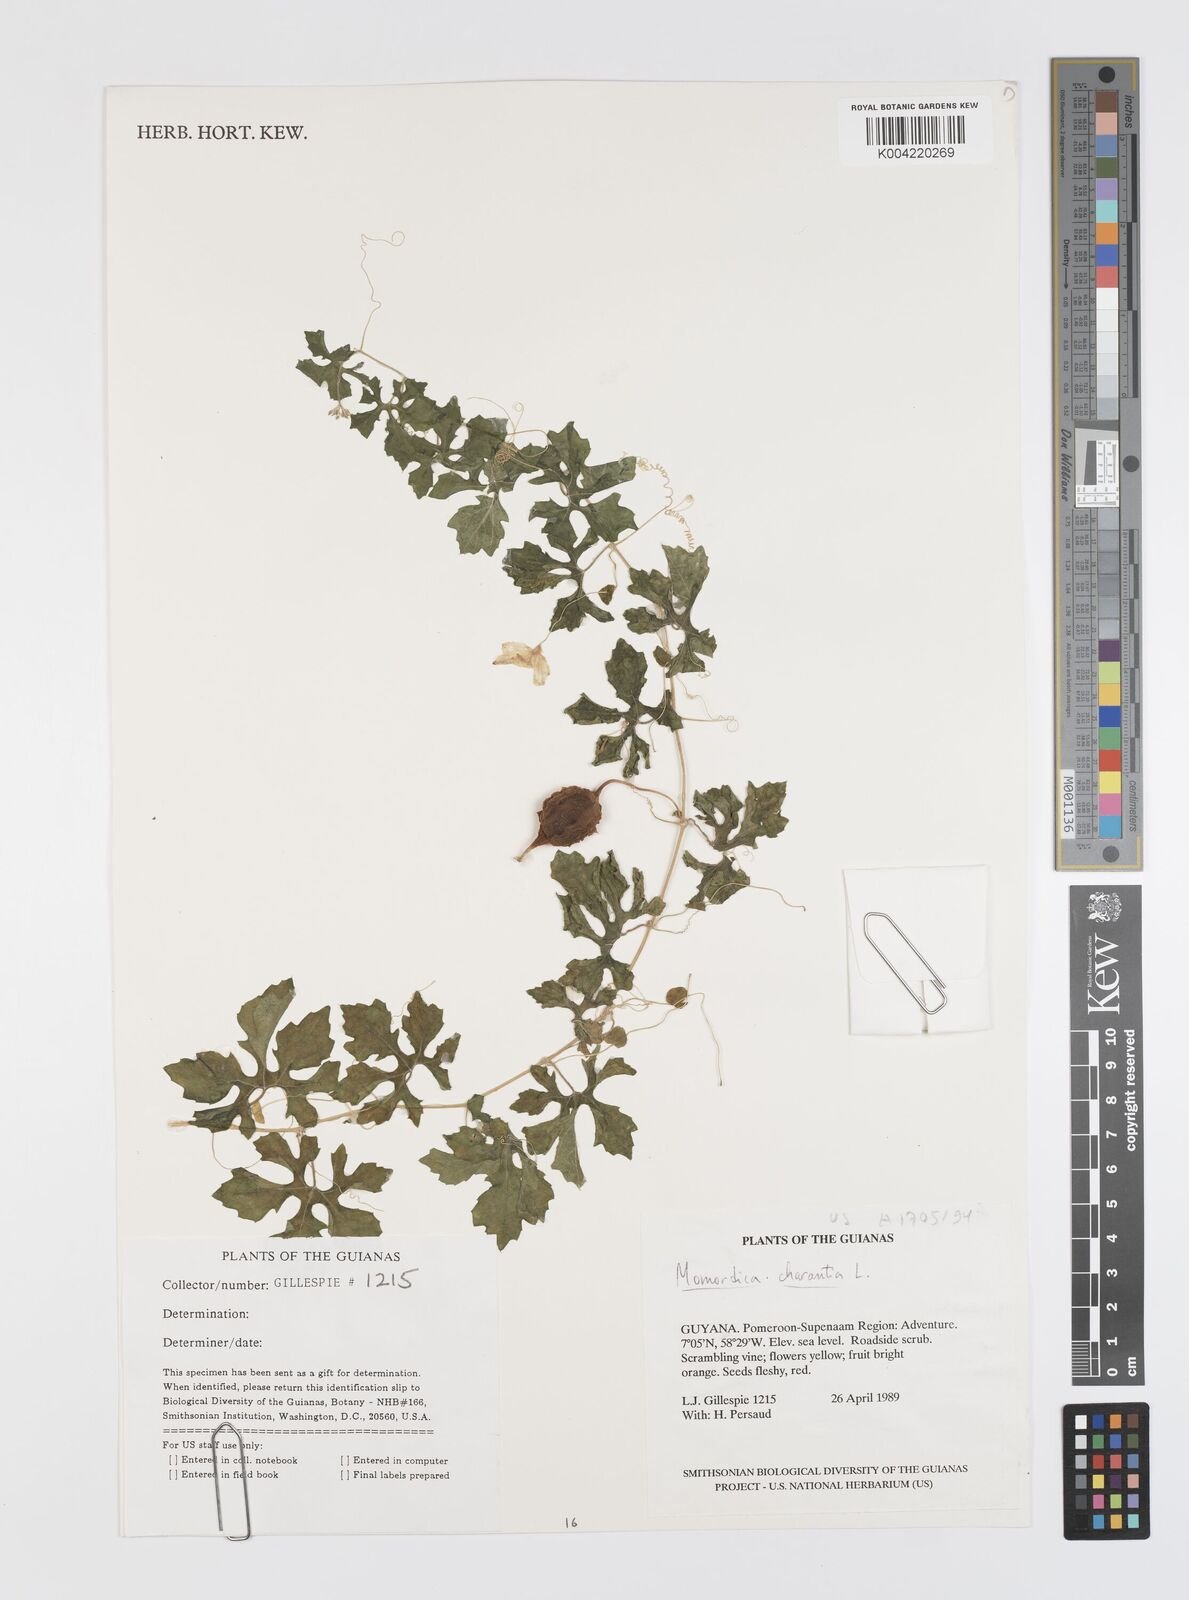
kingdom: Plantae
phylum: Tracheophyta
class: Magnoliopsida
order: Cucurbitales
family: Cucurbitaceae
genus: Momordica
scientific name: Momordica charantia
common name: Balsampear
